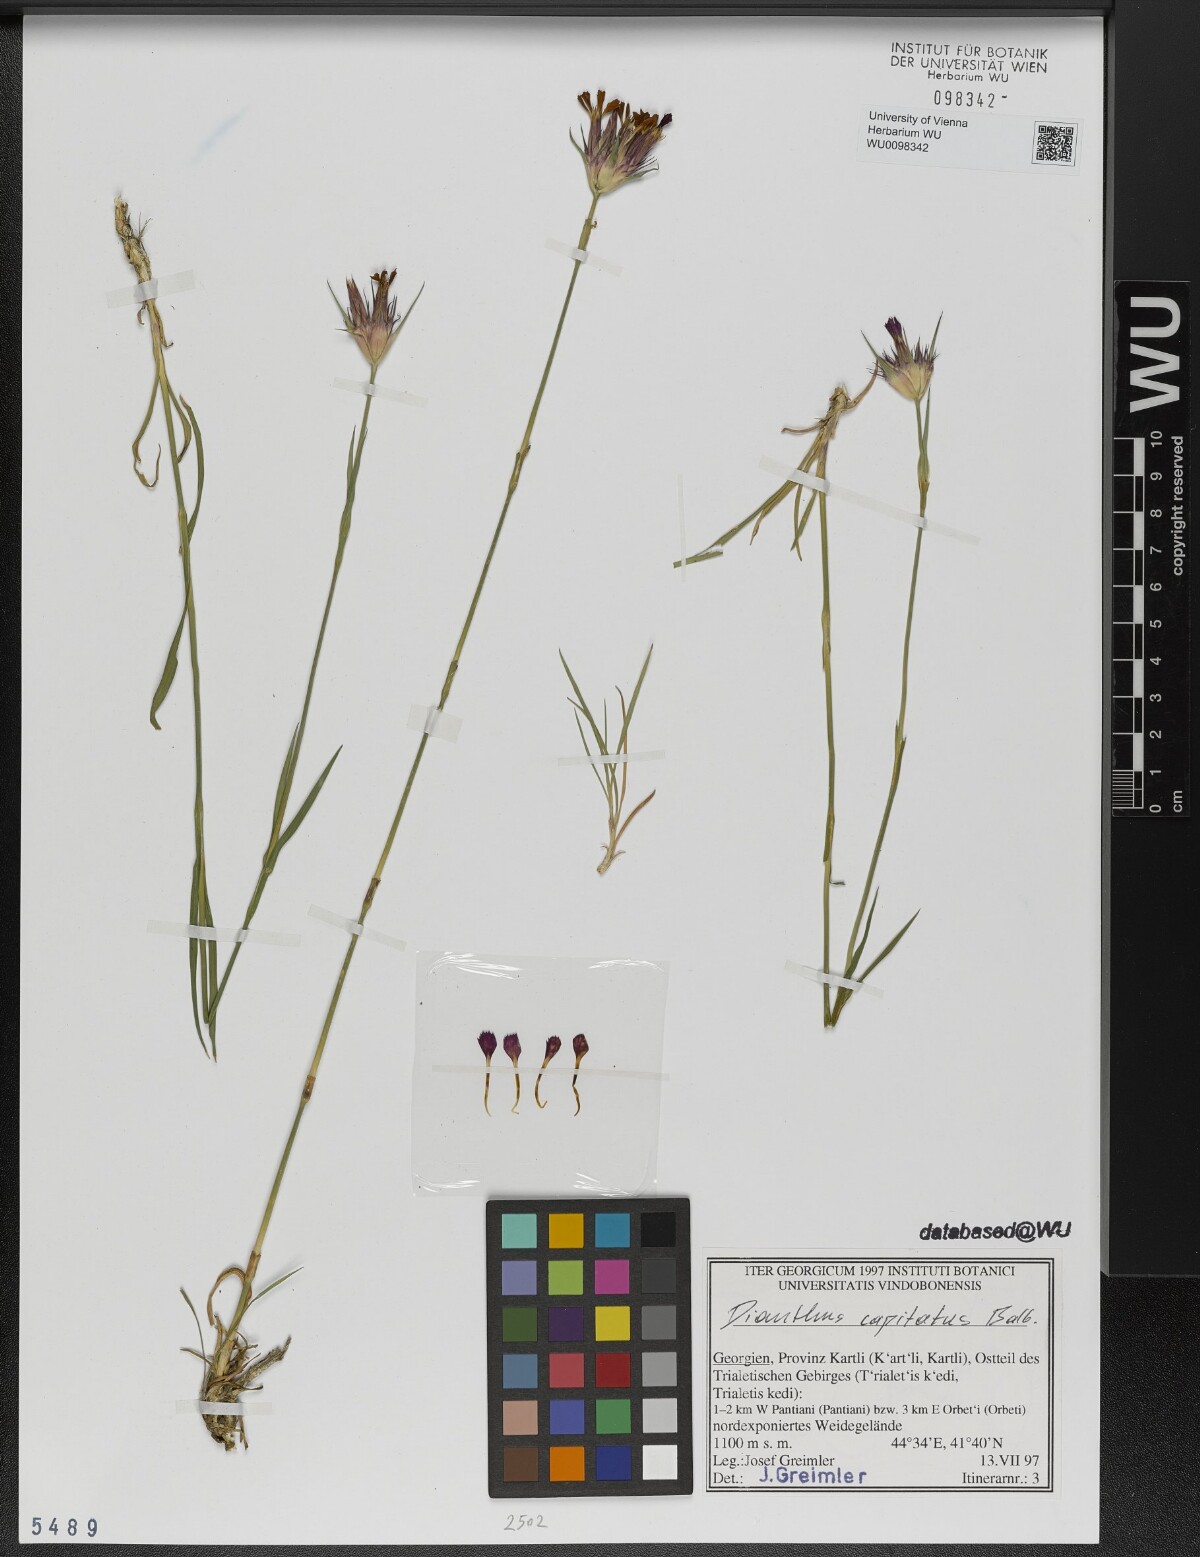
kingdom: Plantae
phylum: Tracheophyta
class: Magnoliopsida
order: Caryophyllales
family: Caryophyllaceae
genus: Dianthus
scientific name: Dianthus capitatus
